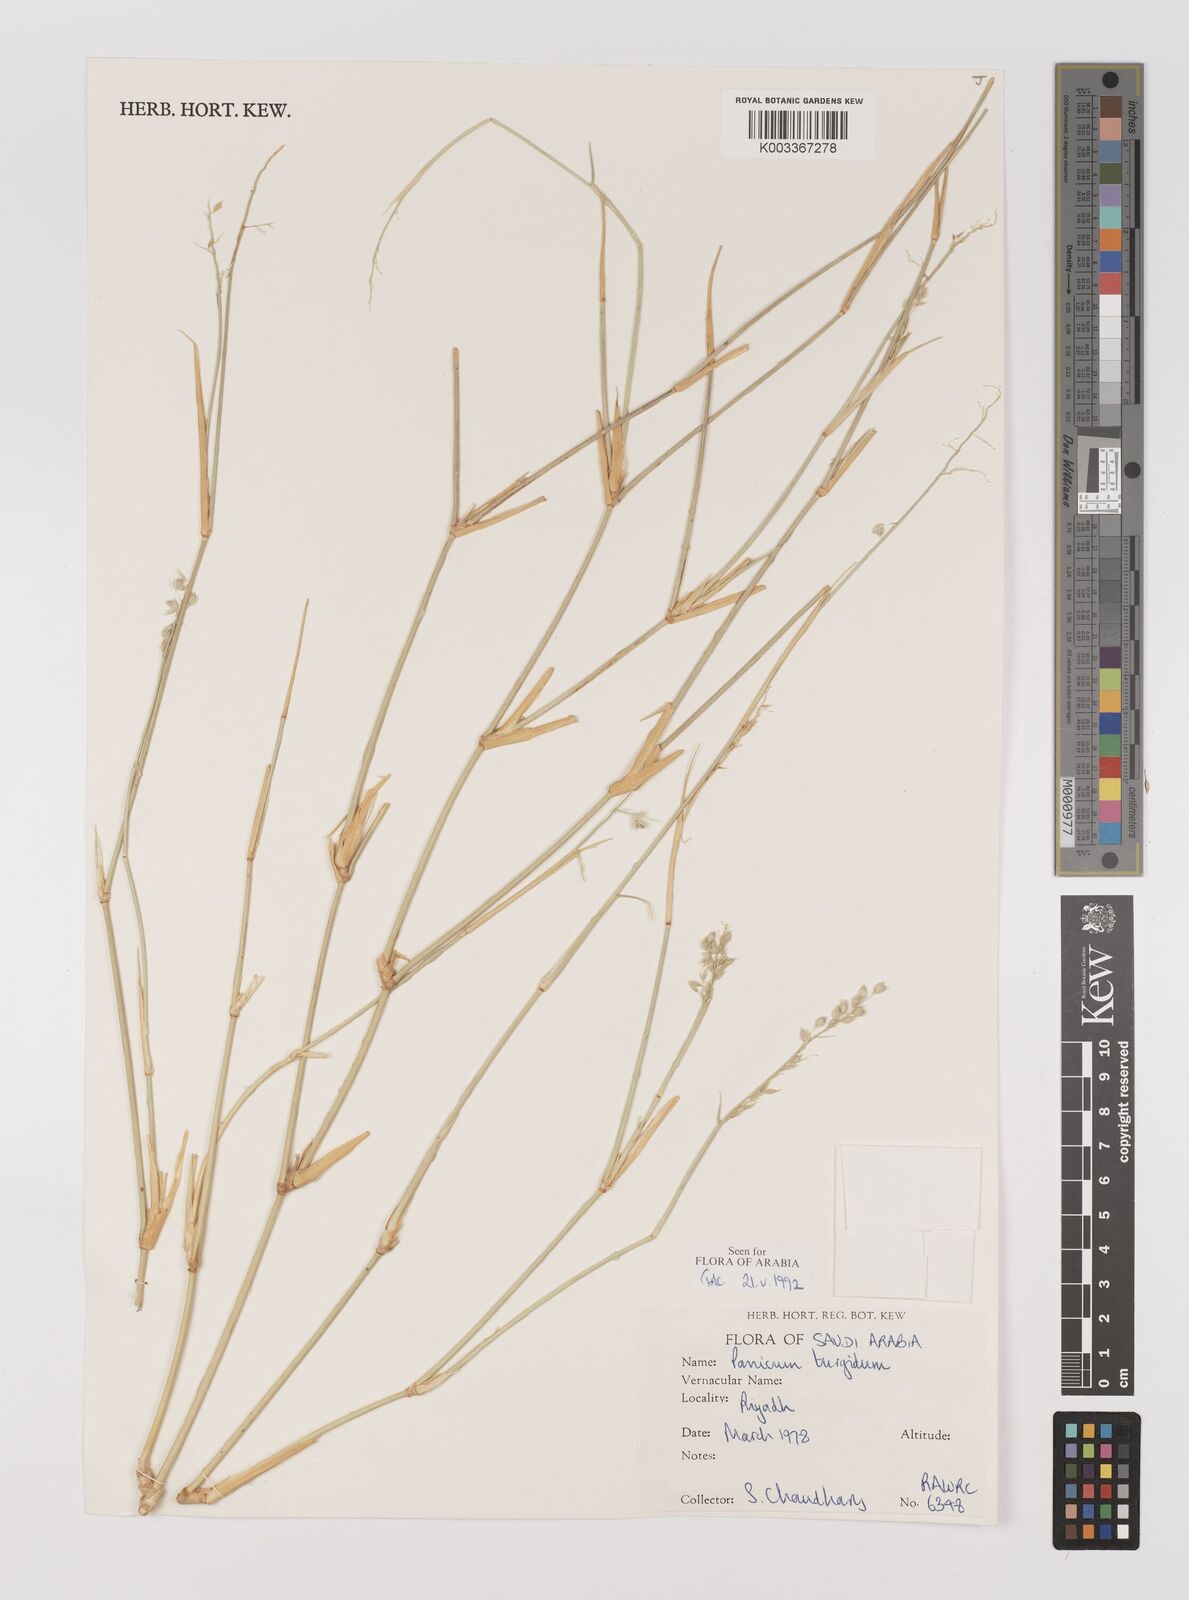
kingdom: Plantae
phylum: Tracheophyta
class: Liliopsida
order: Poales
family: Poaceae
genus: Panicum
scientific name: Panicum turgidum
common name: Desert grass
